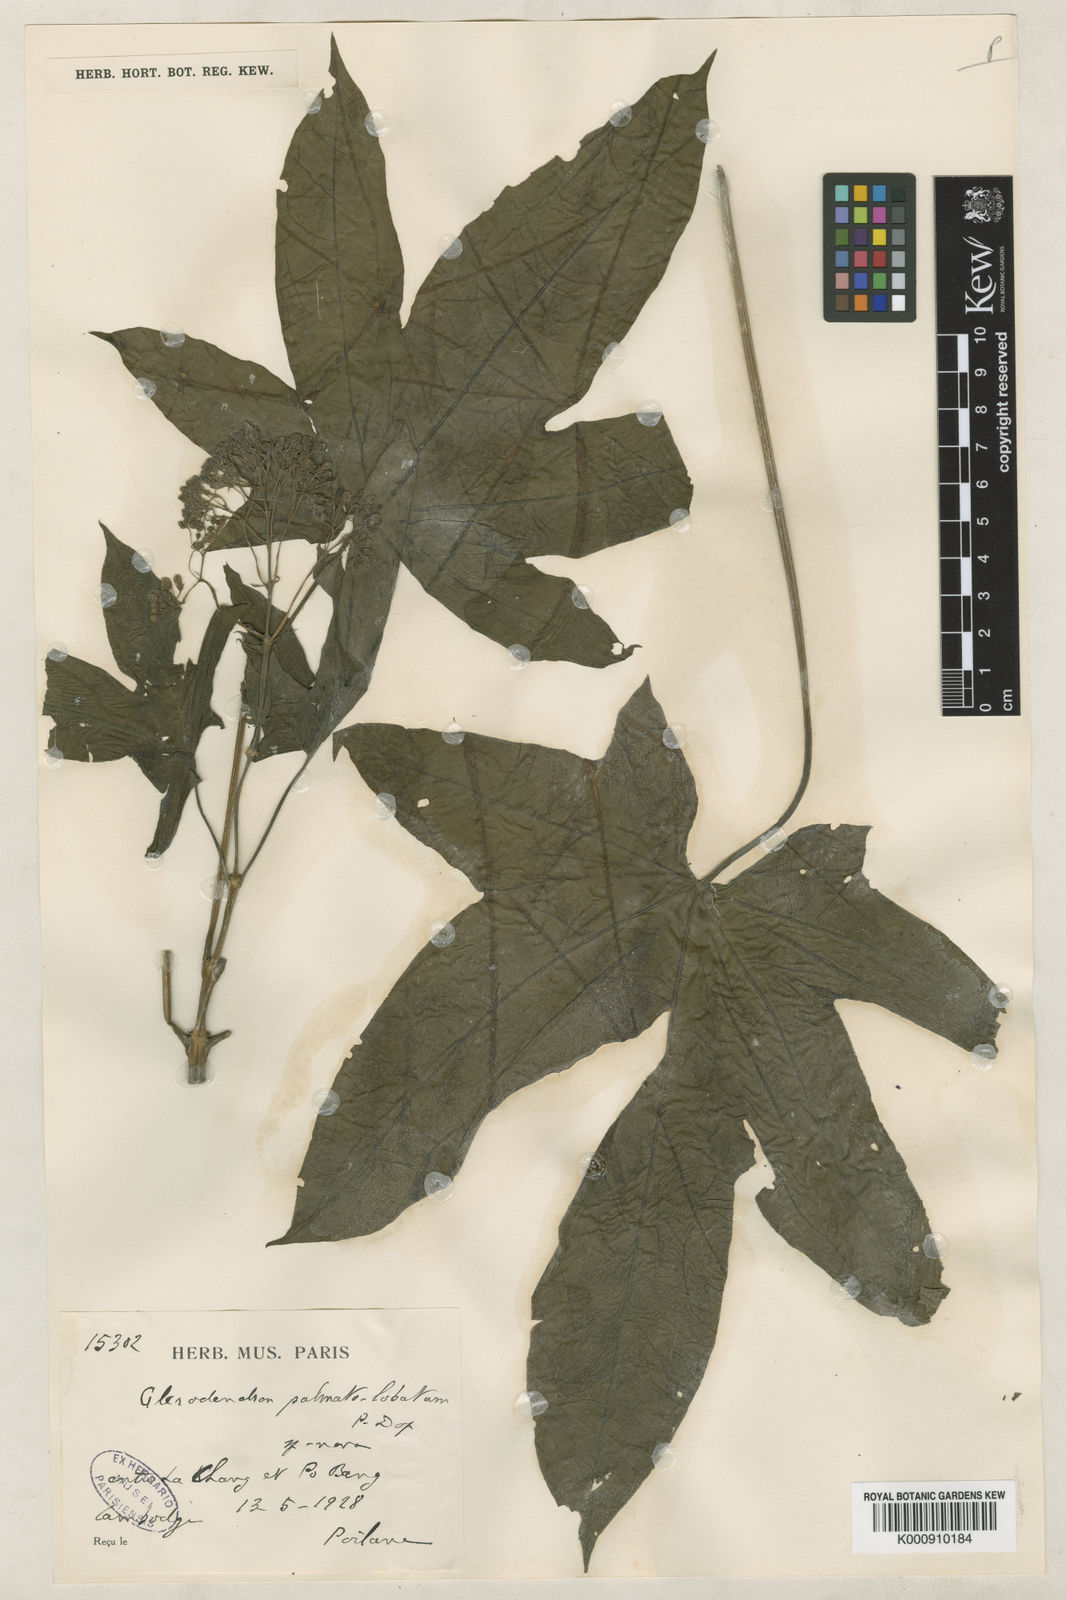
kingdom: Plantae
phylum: Tracheophyta
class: Magnoliopsida
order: Lamiales
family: Lamiaceae
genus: Clerodendrum
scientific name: Clerodendrum palmatolobatum
